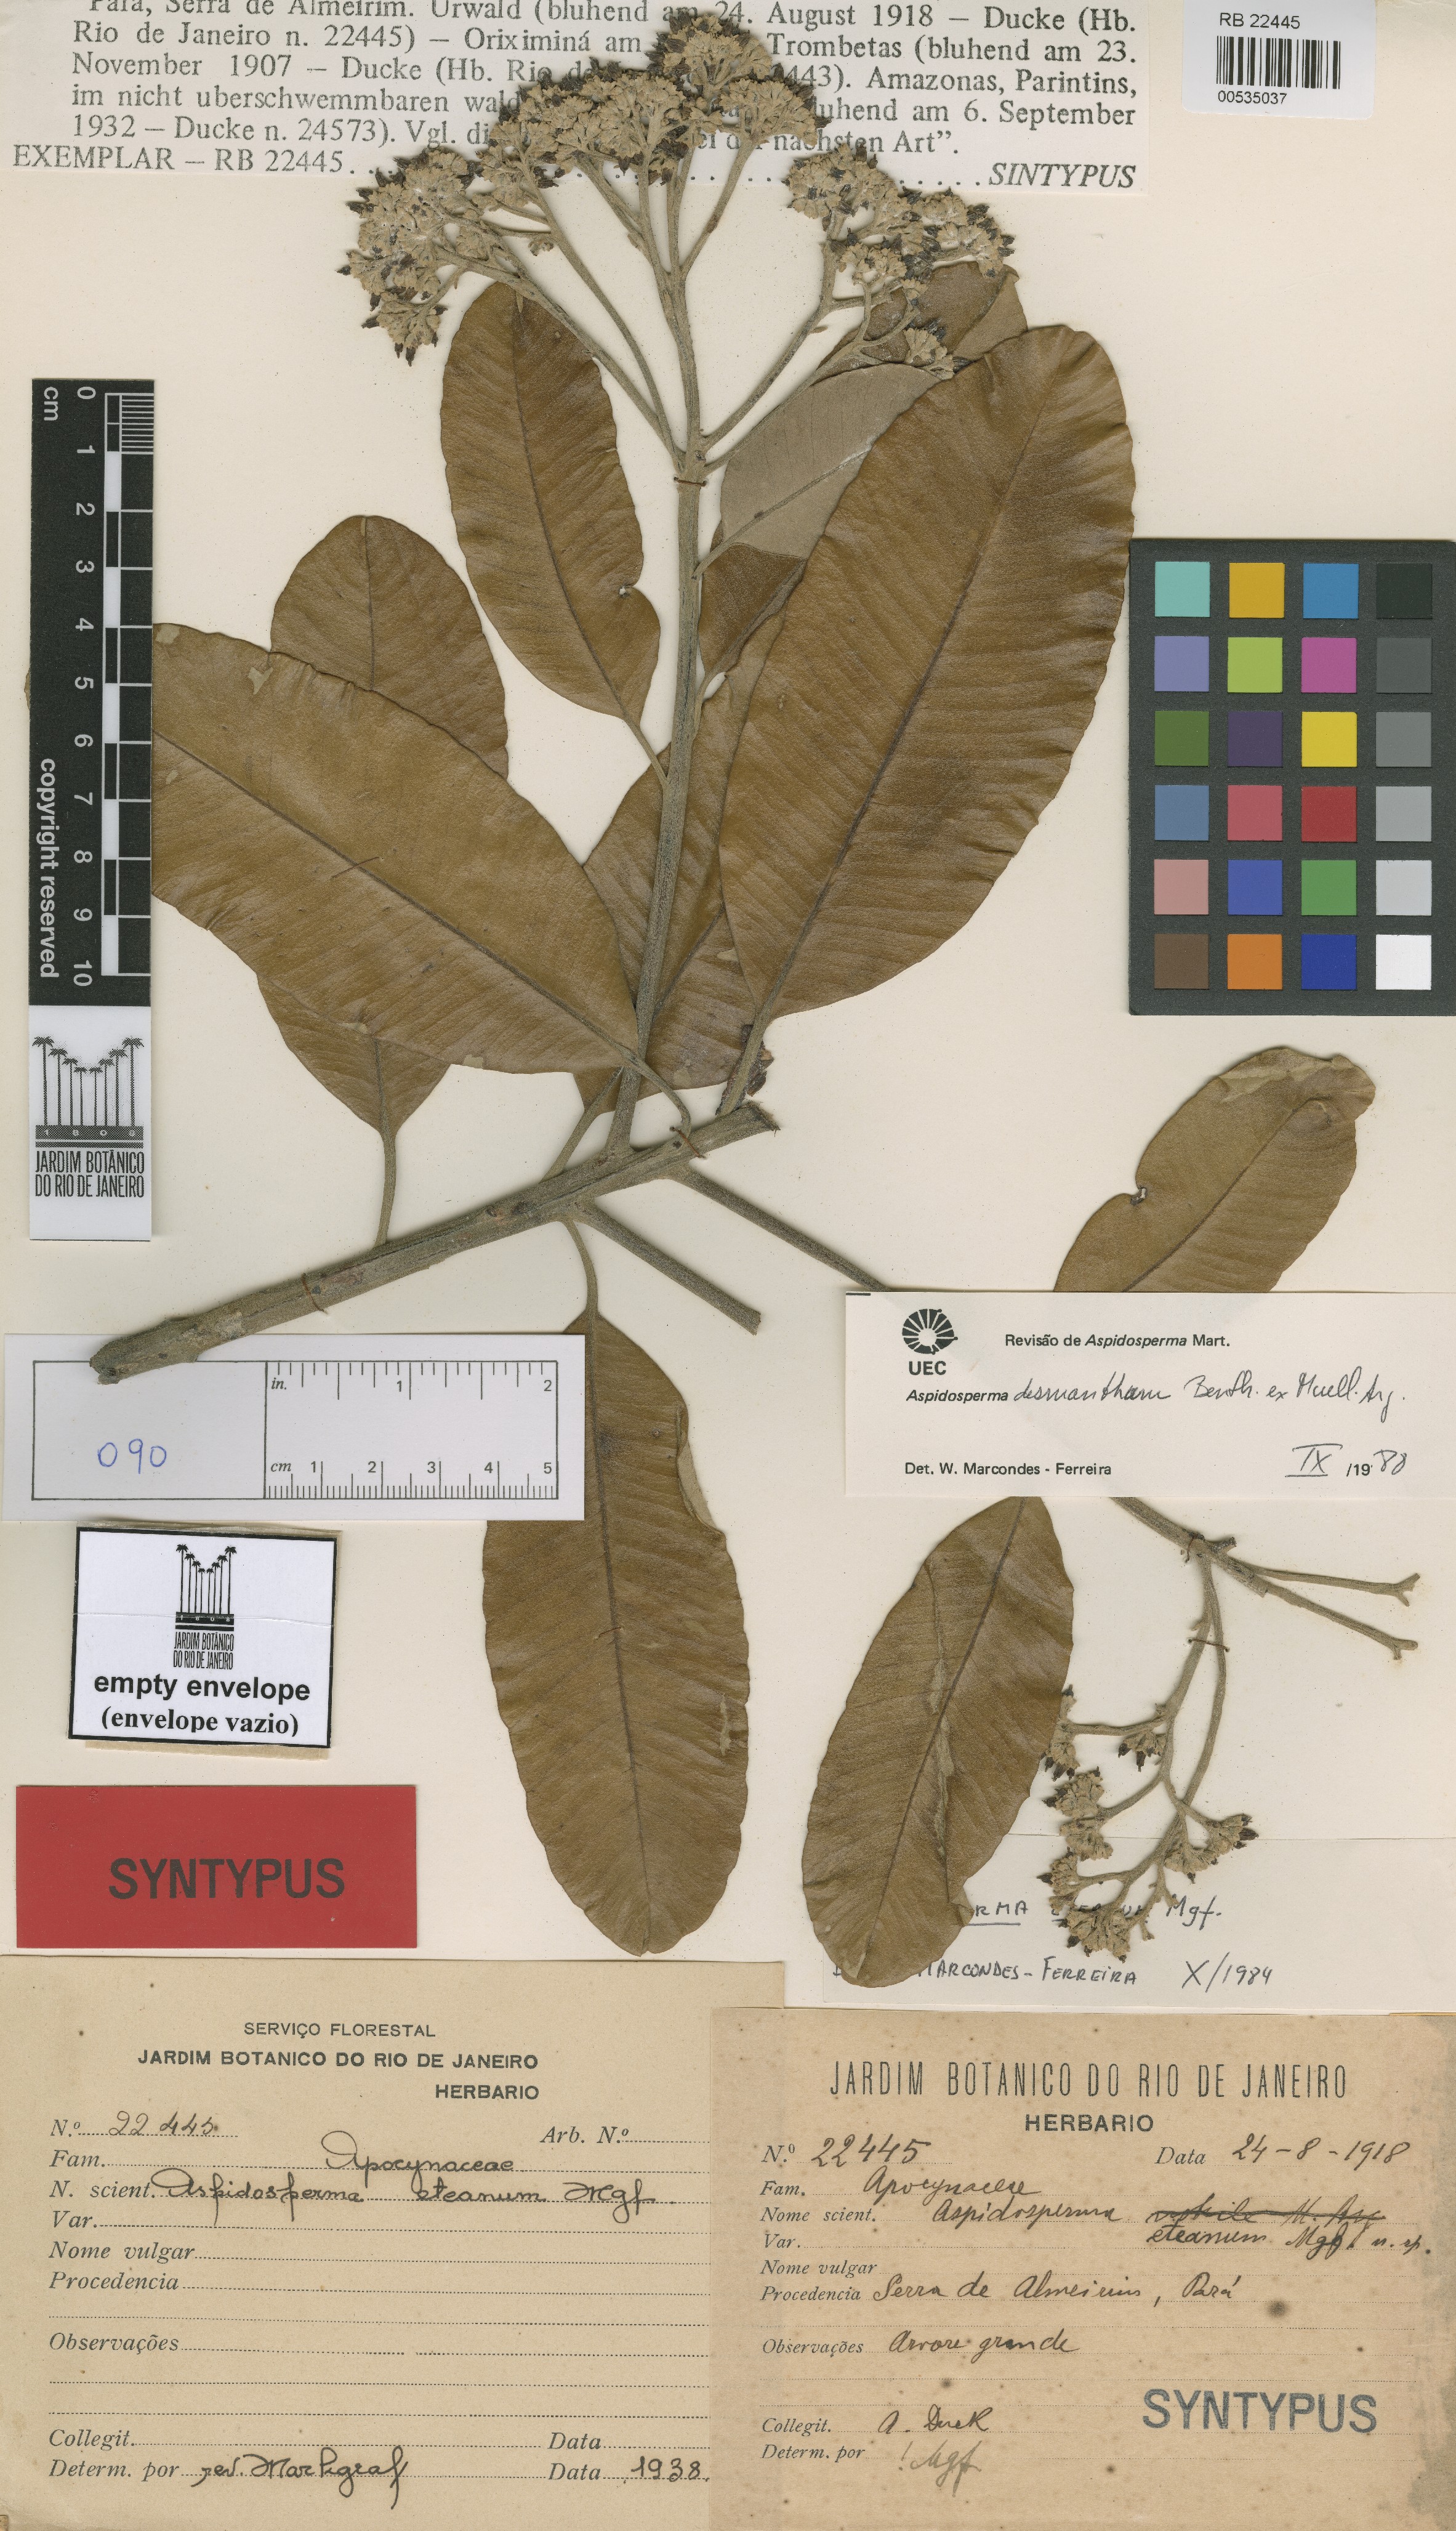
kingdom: Plantae
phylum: Tracheophyta
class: Magnoliopsida
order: Gentianales
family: Apocynaceae
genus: Aspidosperma
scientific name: Aspidosperma eteanum
